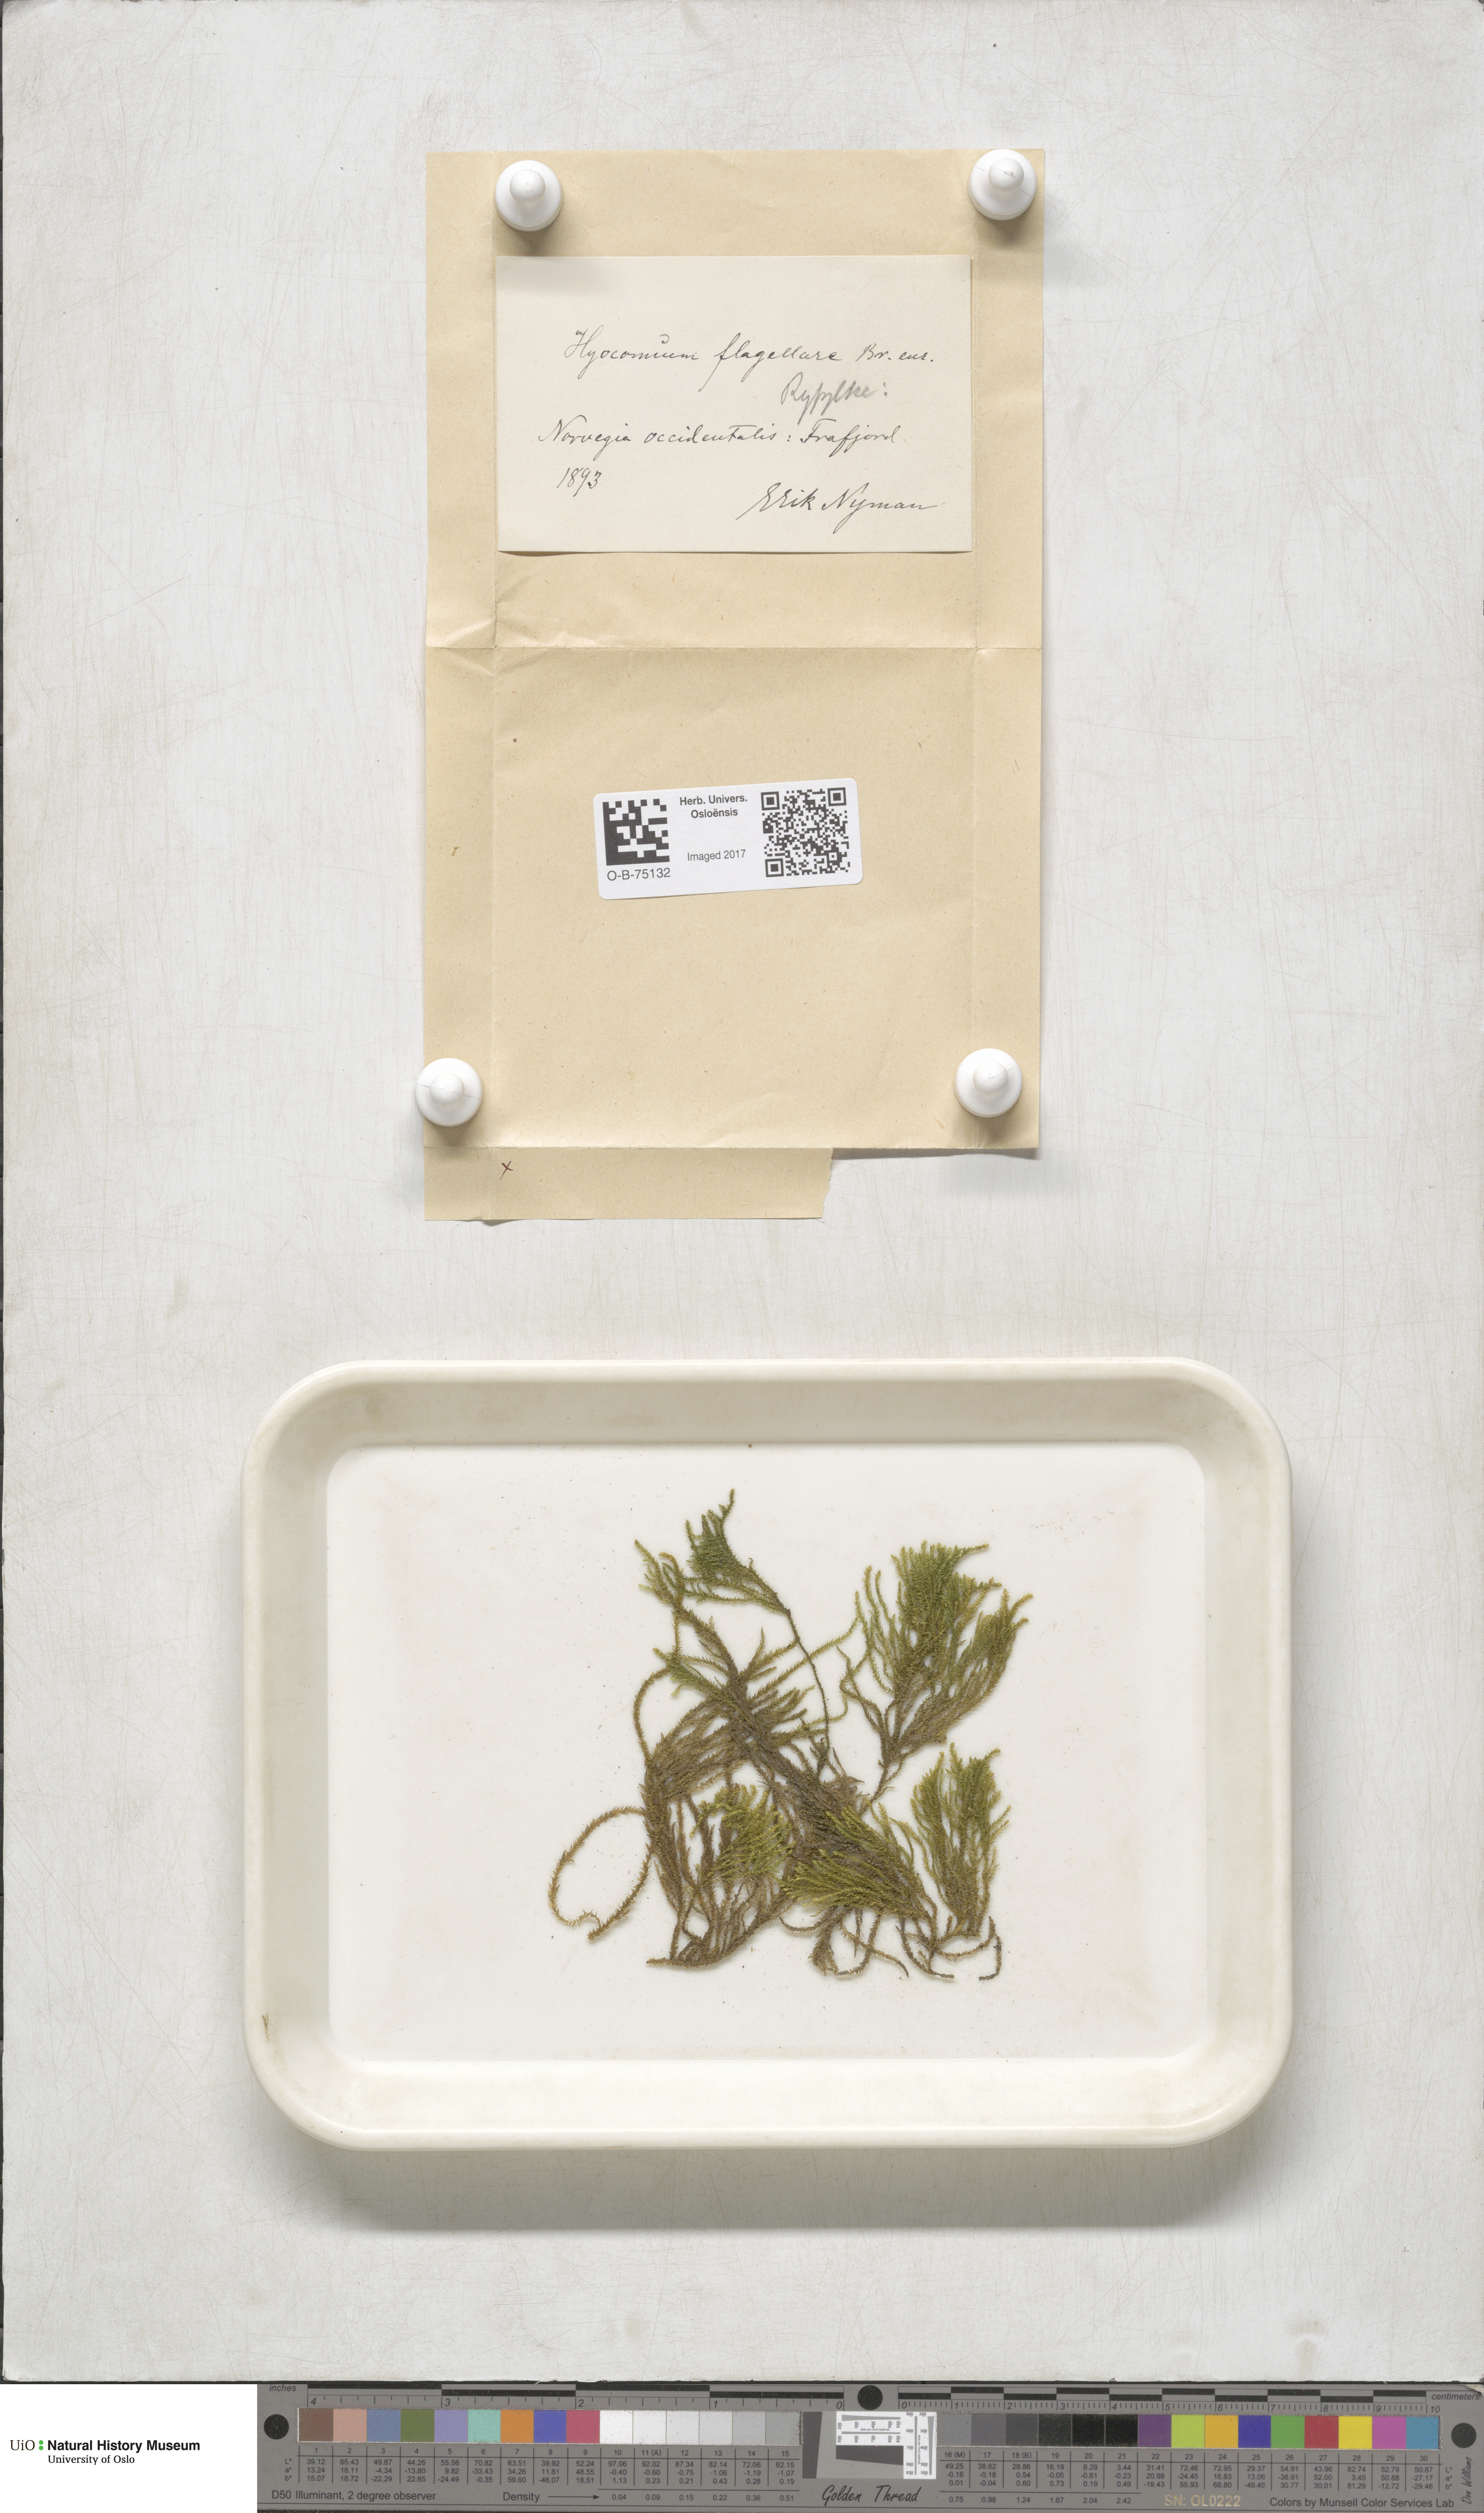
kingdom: Plantae
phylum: Bryophyta
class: Bryopsida
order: Hypnales
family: Myuriaceae
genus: Hyocomium
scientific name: Hyocomium armoricum
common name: Flagellate feather-moss
